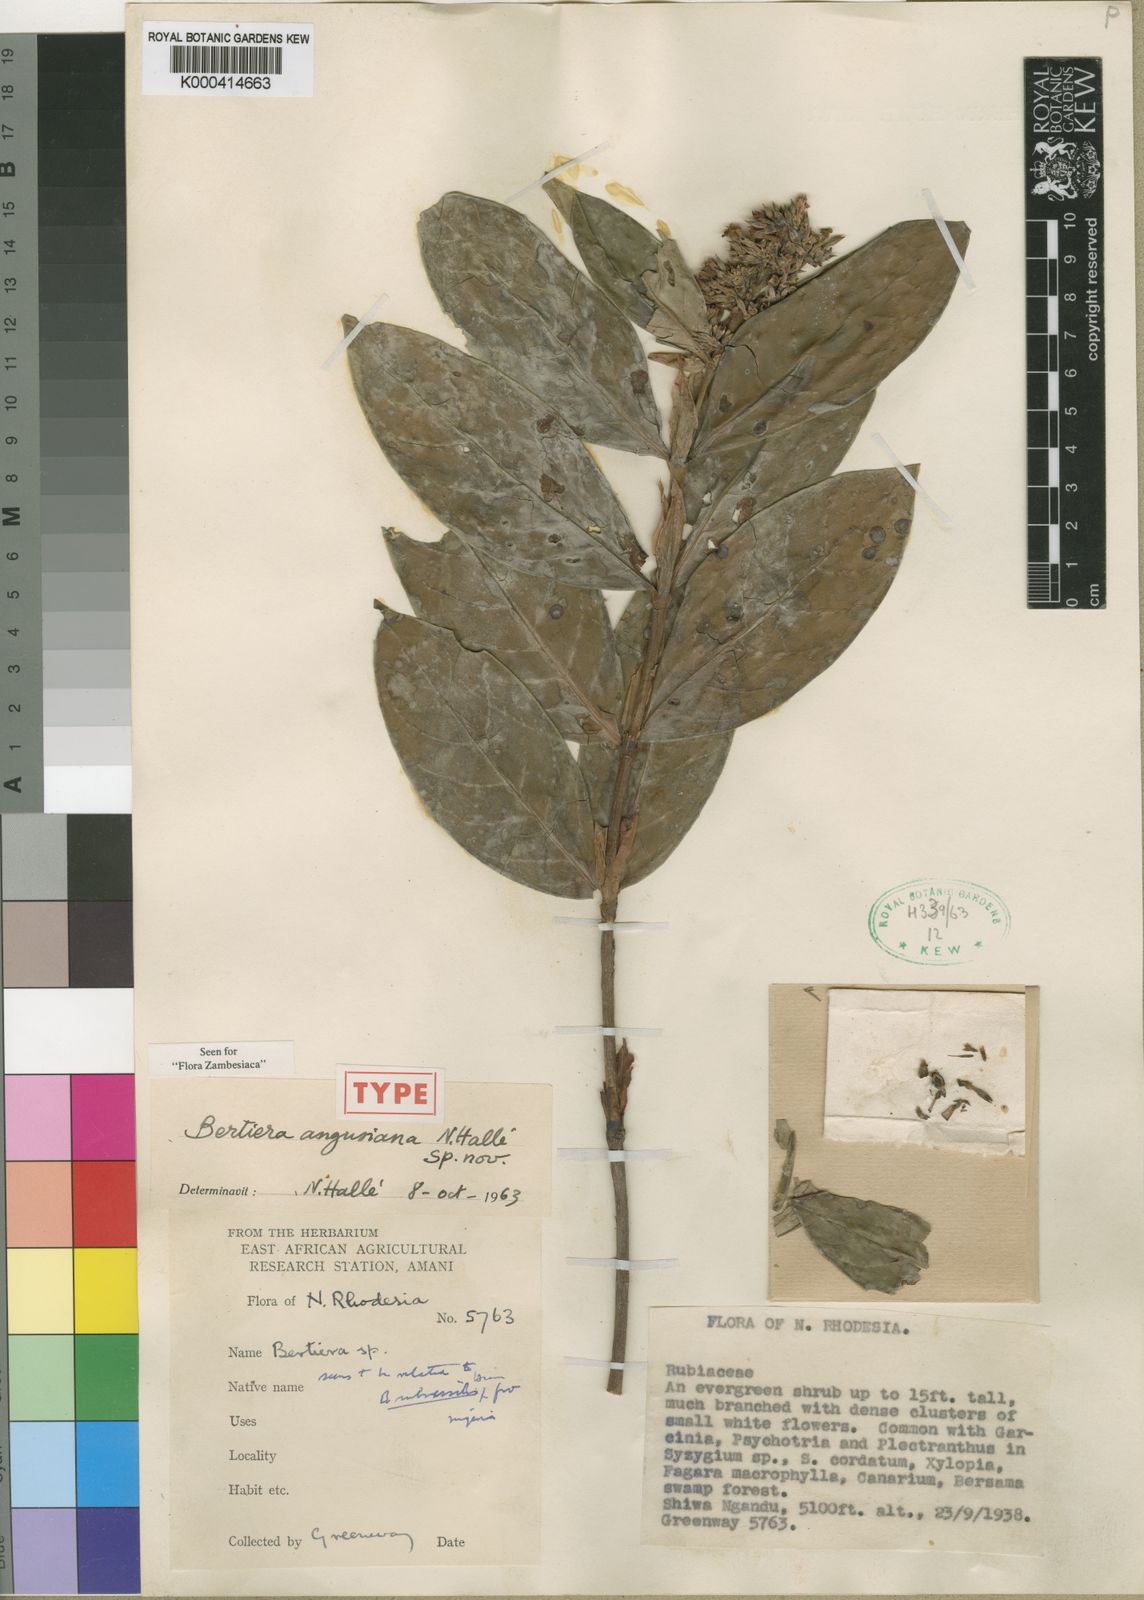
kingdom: Plantae
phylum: Tracheophyta
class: Magnoliopsida
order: Gentianales
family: Rubiaceae
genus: Bertiera
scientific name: Bertiera
